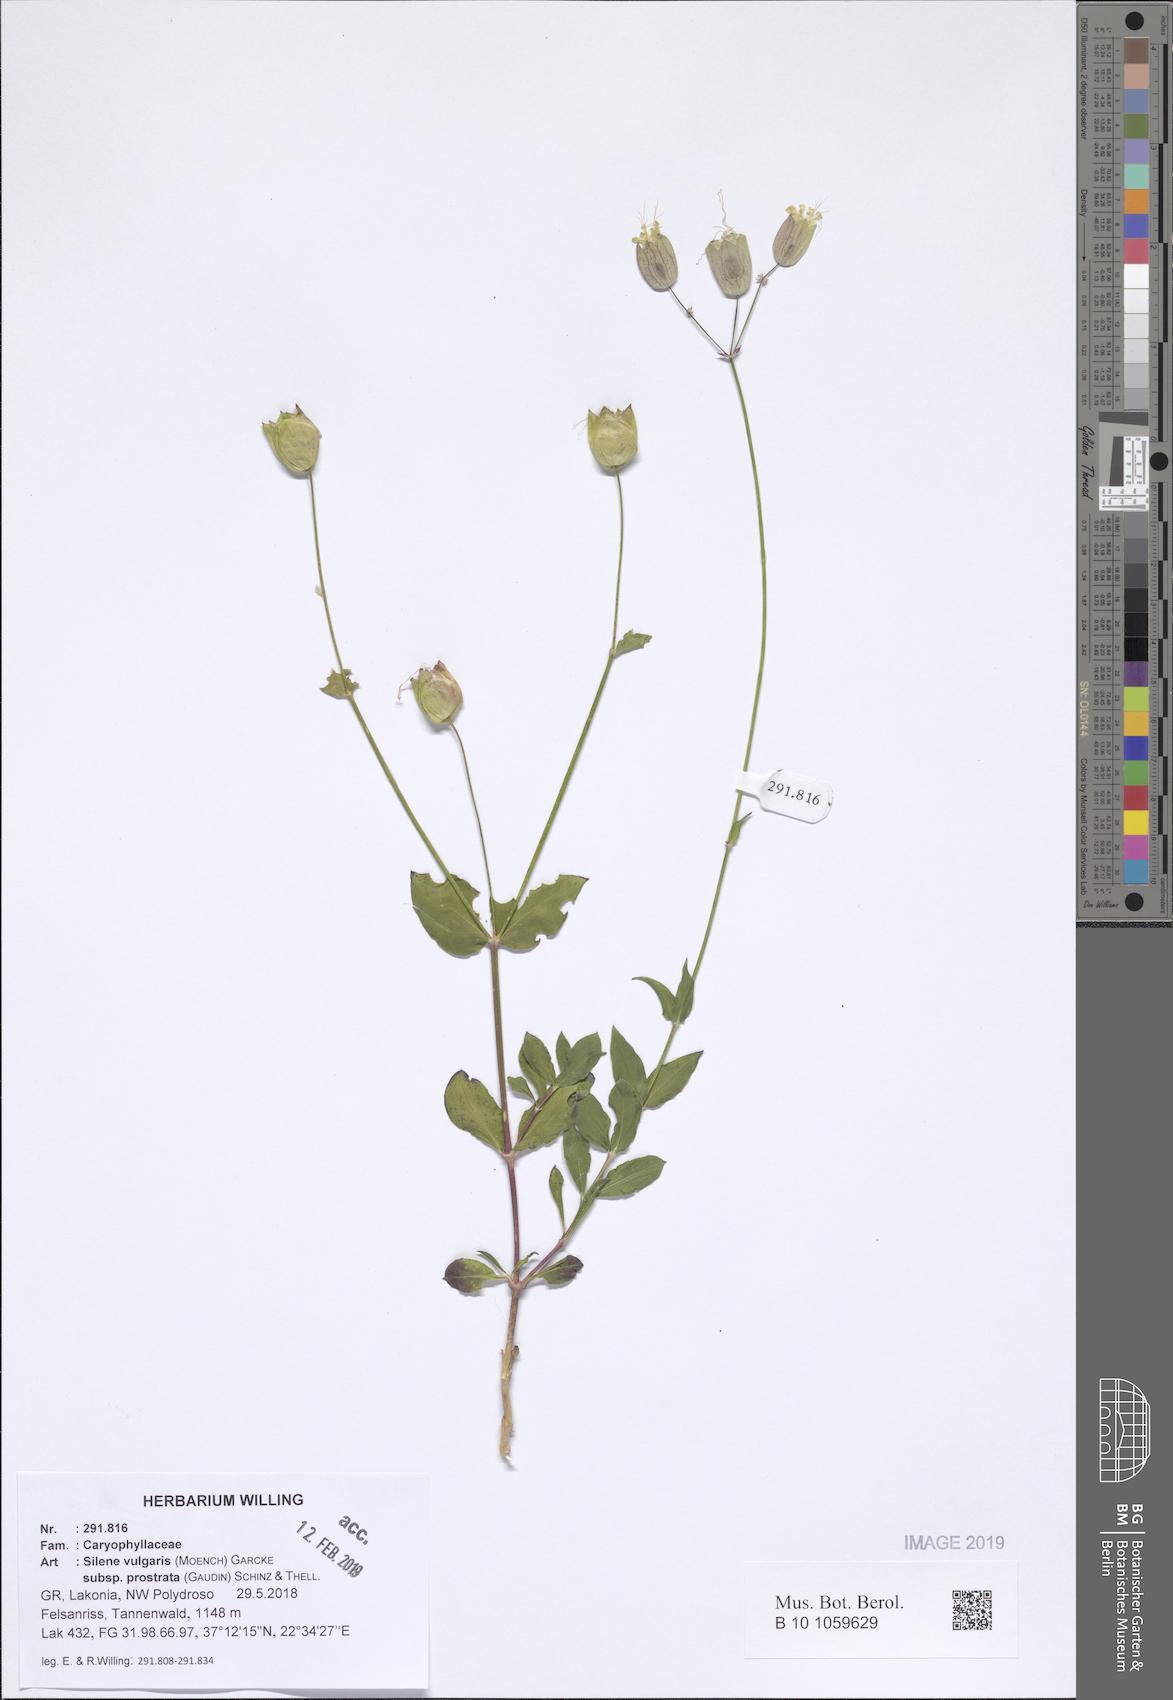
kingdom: Plantae
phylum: Tracheophyta
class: Magnoliopsida
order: Caryophyllales
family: Caryophyllaceae
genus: Silene
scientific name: Silene glareosa
